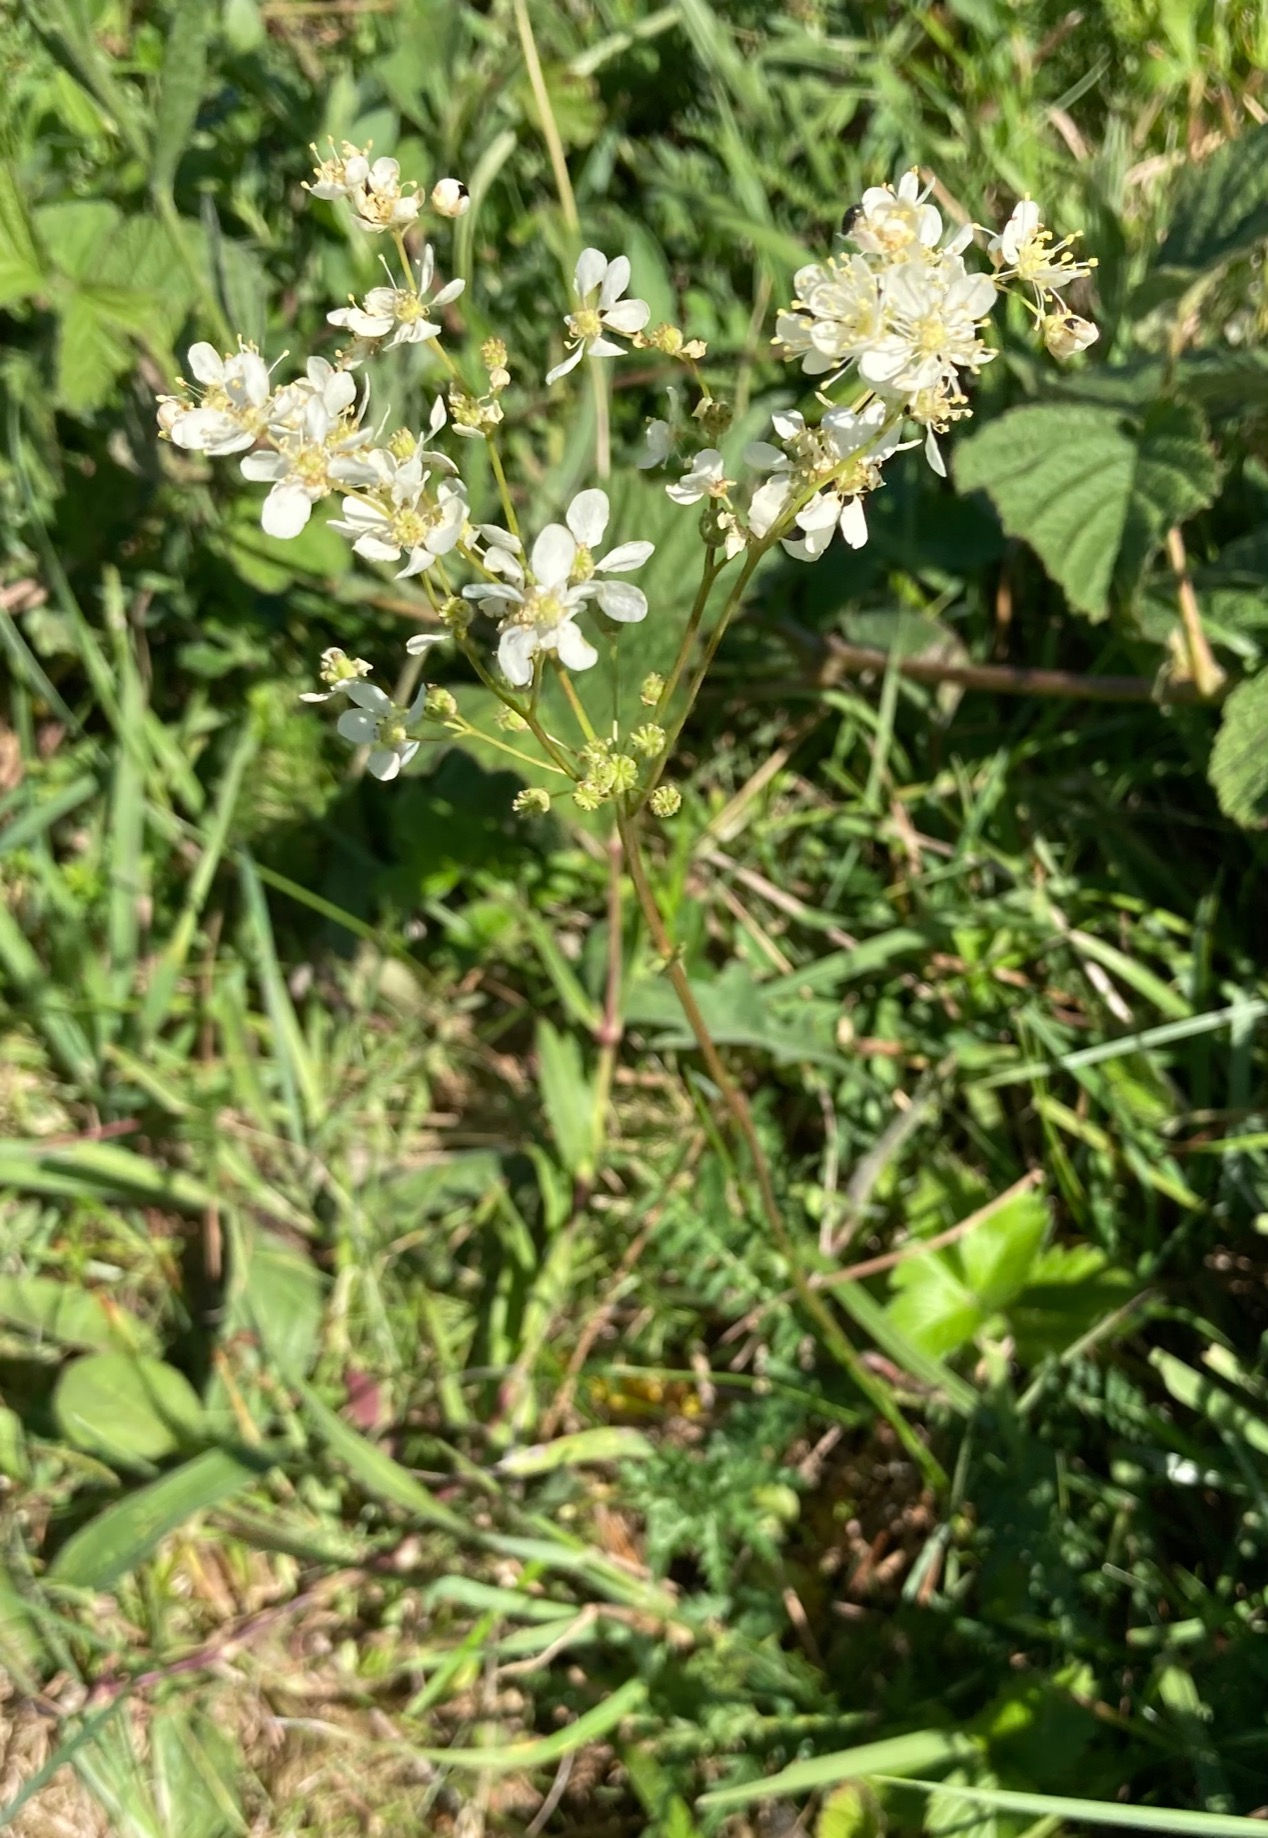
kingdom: Plantae
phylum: Tracheophyta
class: Magnoliopsida
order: Rosales
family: Rosaceae
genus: Filipendula
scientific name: Filipendula vulgaris
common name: Knoldet mjødurt
